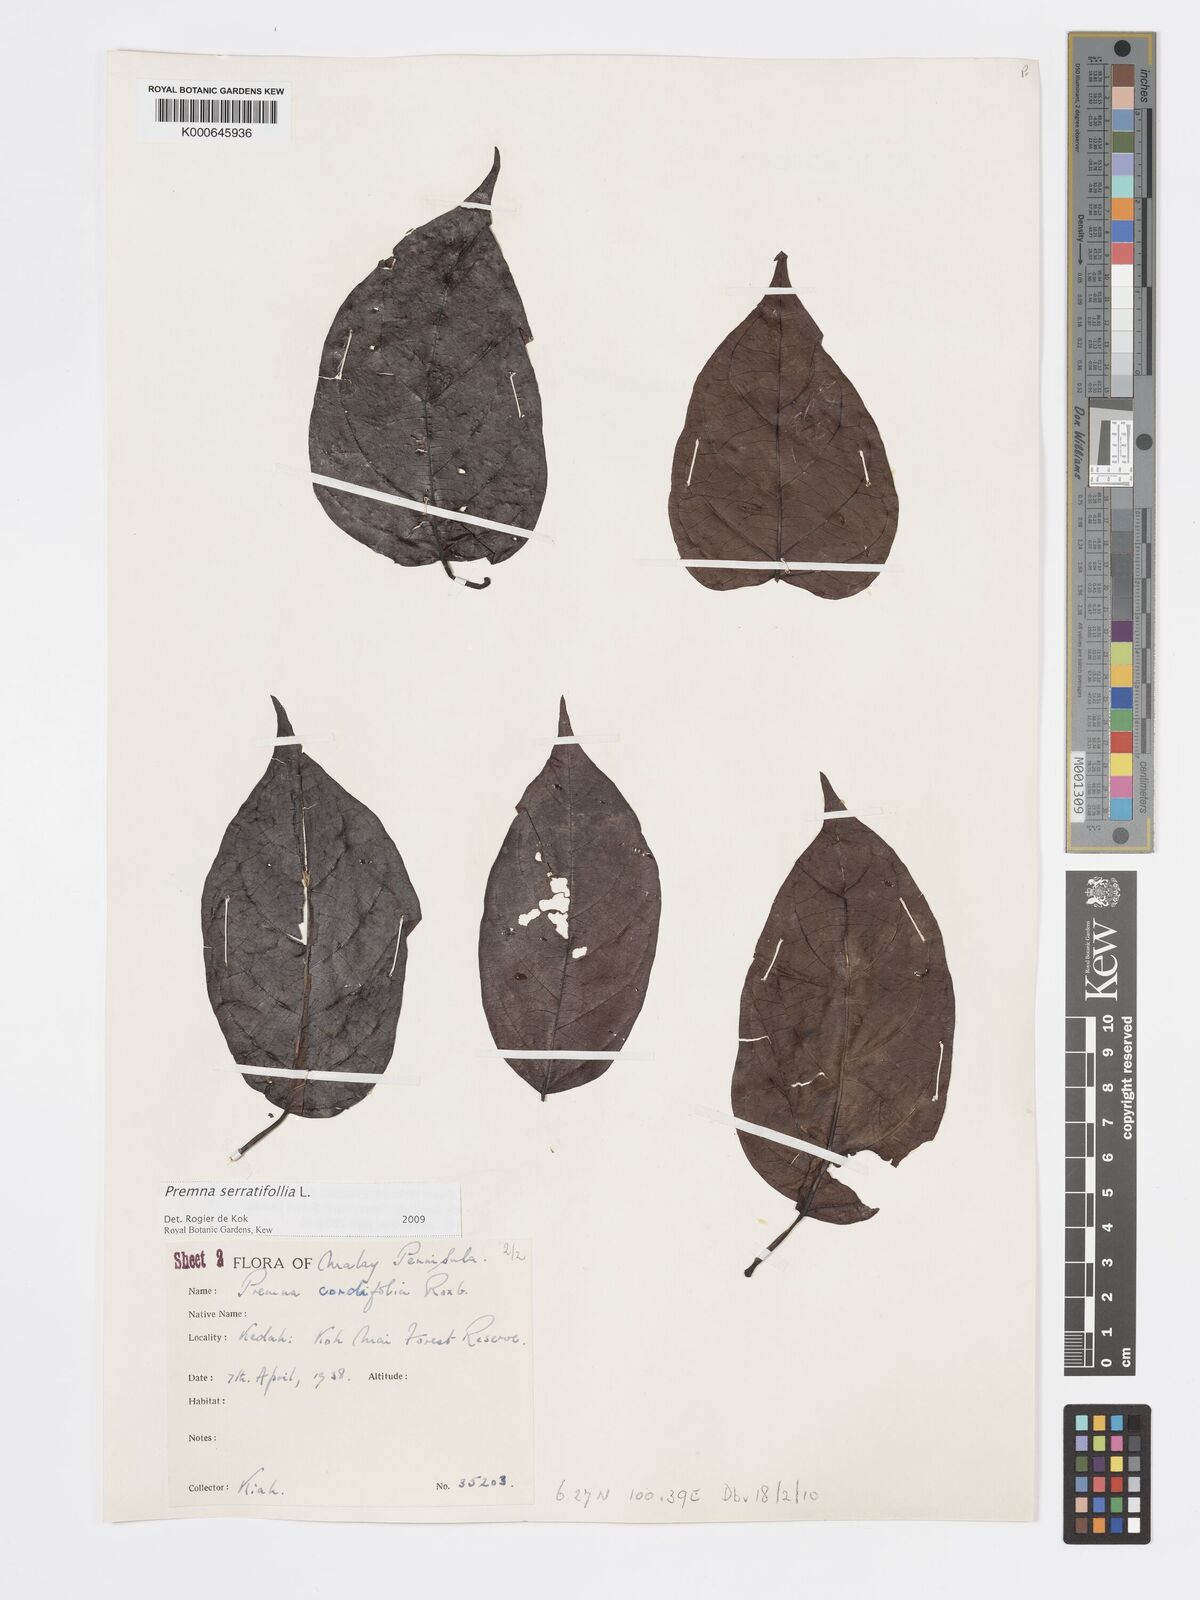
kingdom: Plantae
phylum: Tracheophyta
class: Magnoliopsida
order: Lamiales
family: Lamiaceae
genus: Premna
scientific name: Premna serratifolia
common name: Bastard guelder
